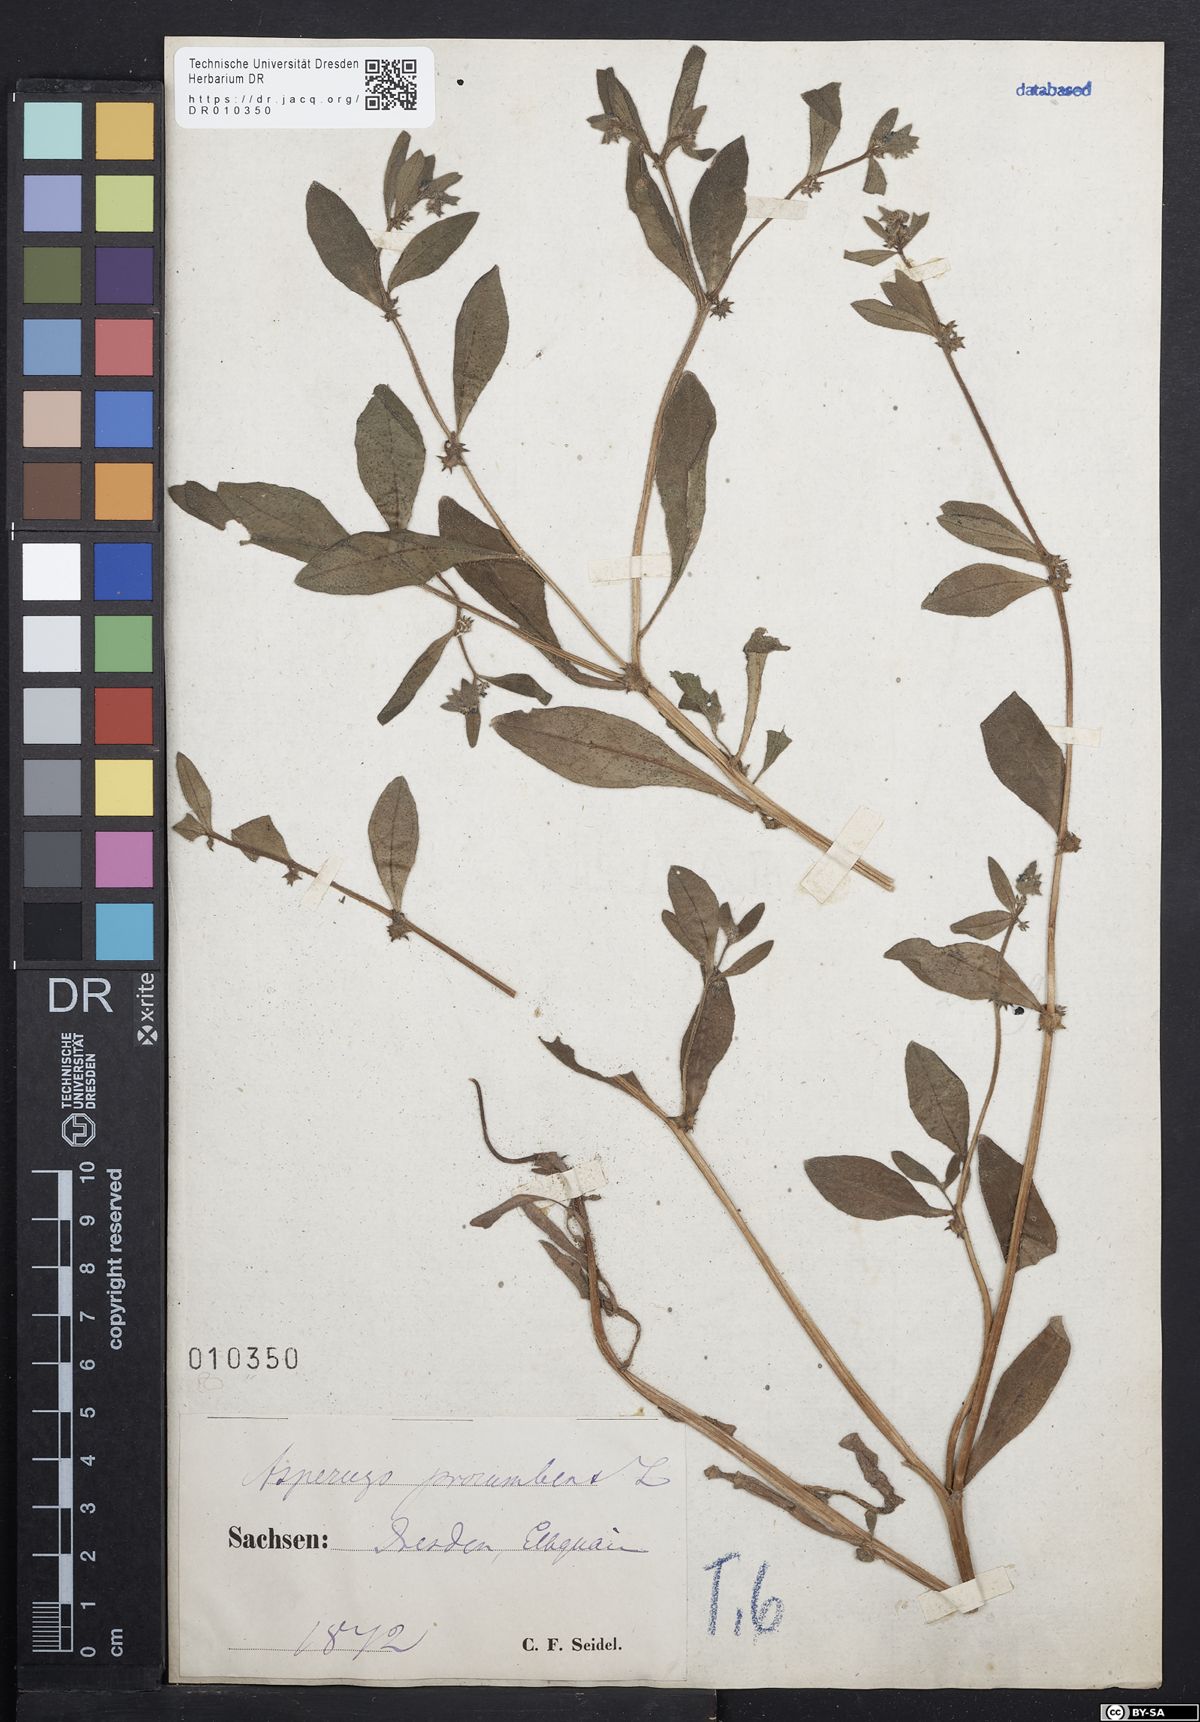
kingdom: Plantae
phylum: Tracheophyta
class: Magnoliopsida
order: Boraginales
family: Boraginaceae
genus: Asperugo
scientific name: Asperugo procumbens
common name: Madwort
